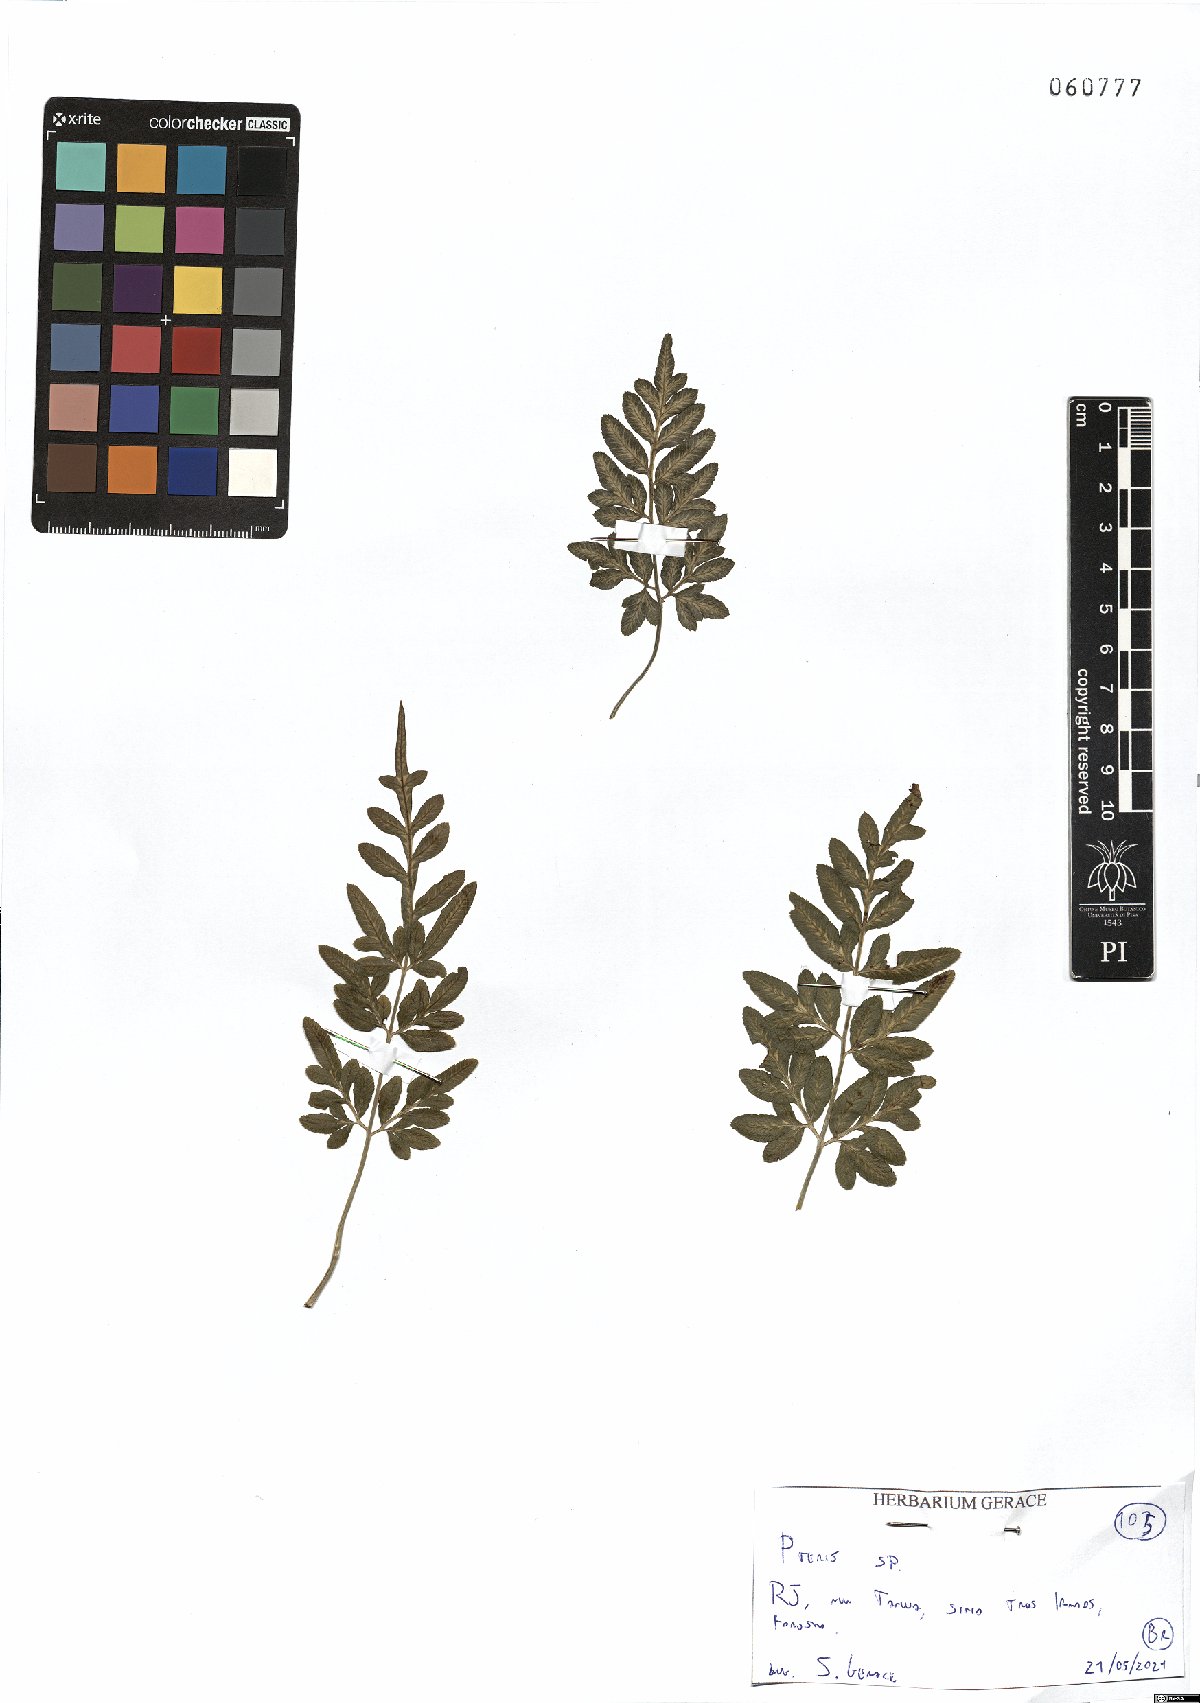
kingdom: Plantae
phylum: Tracheophyta
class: Polypodiopsida
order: Polypodiales
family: Pteridaceae
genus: Pteris
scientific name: Pteris
